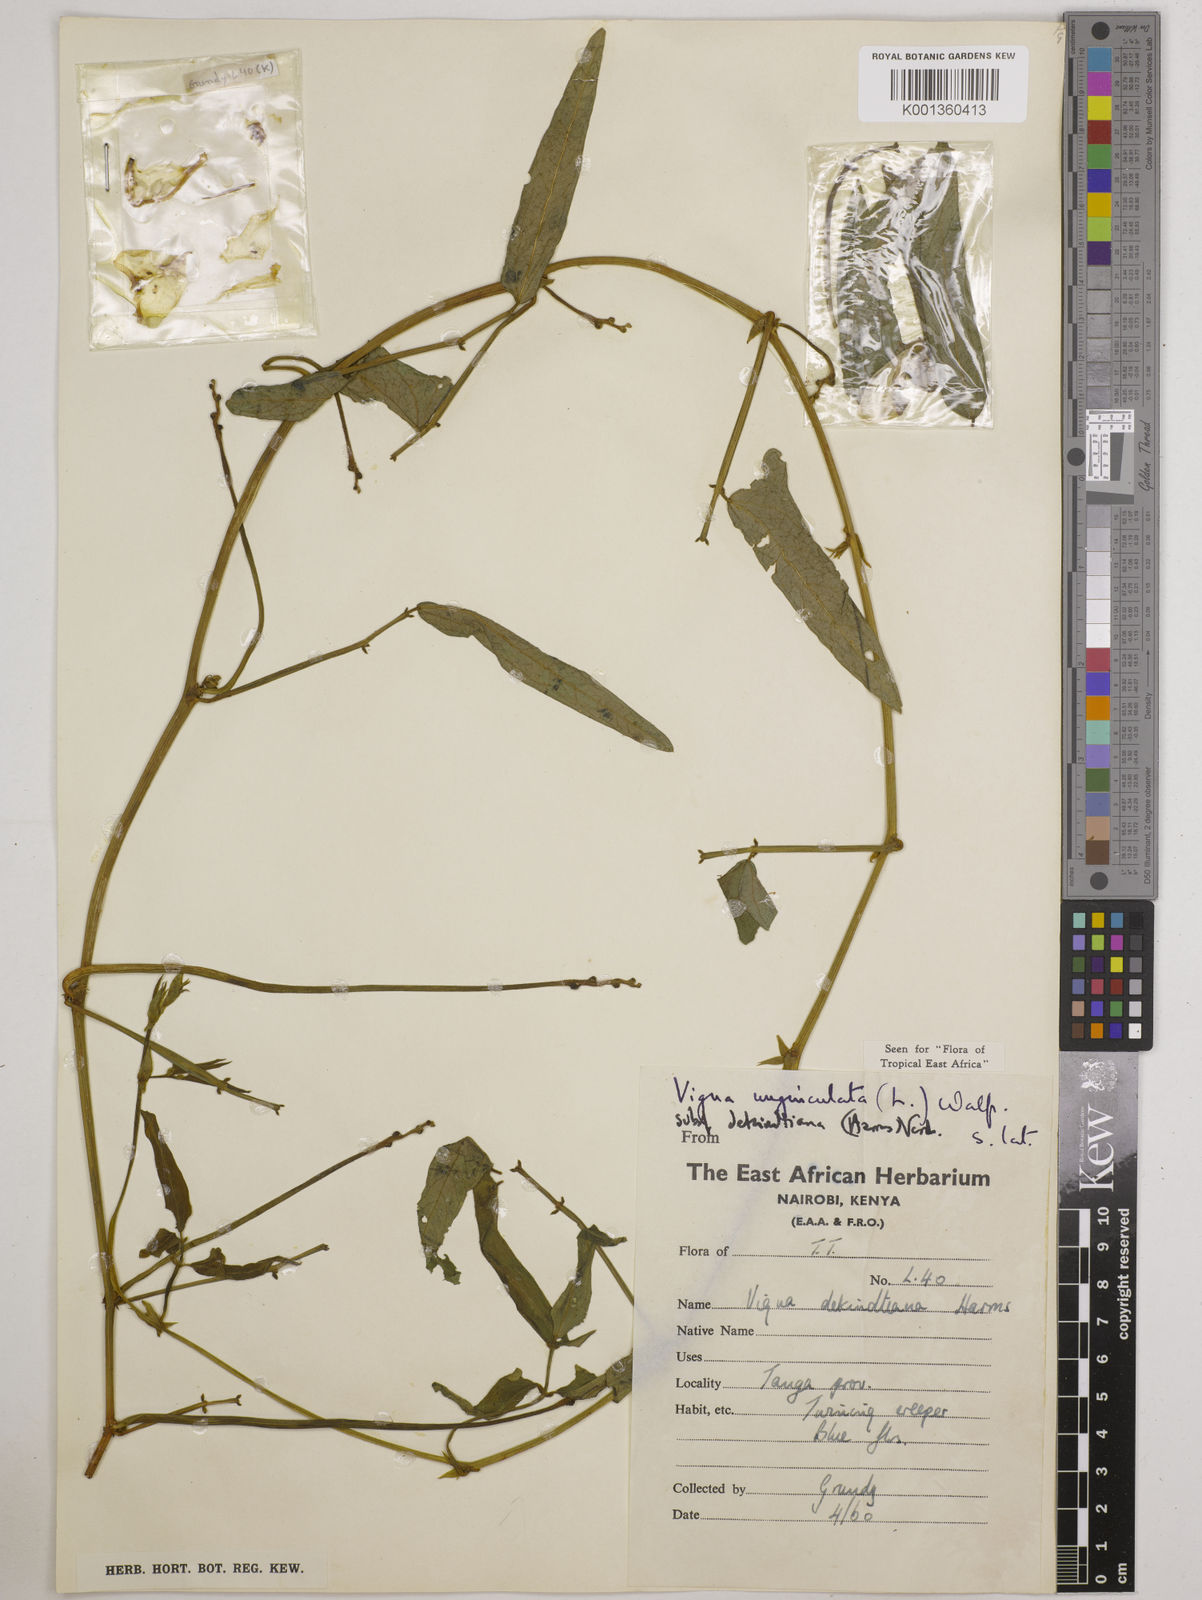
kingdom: Plantae
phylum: Tracheophyta
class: Magnoliopsida
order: Fabales
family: Fabaceae
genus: Vigna
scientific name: Vigna
